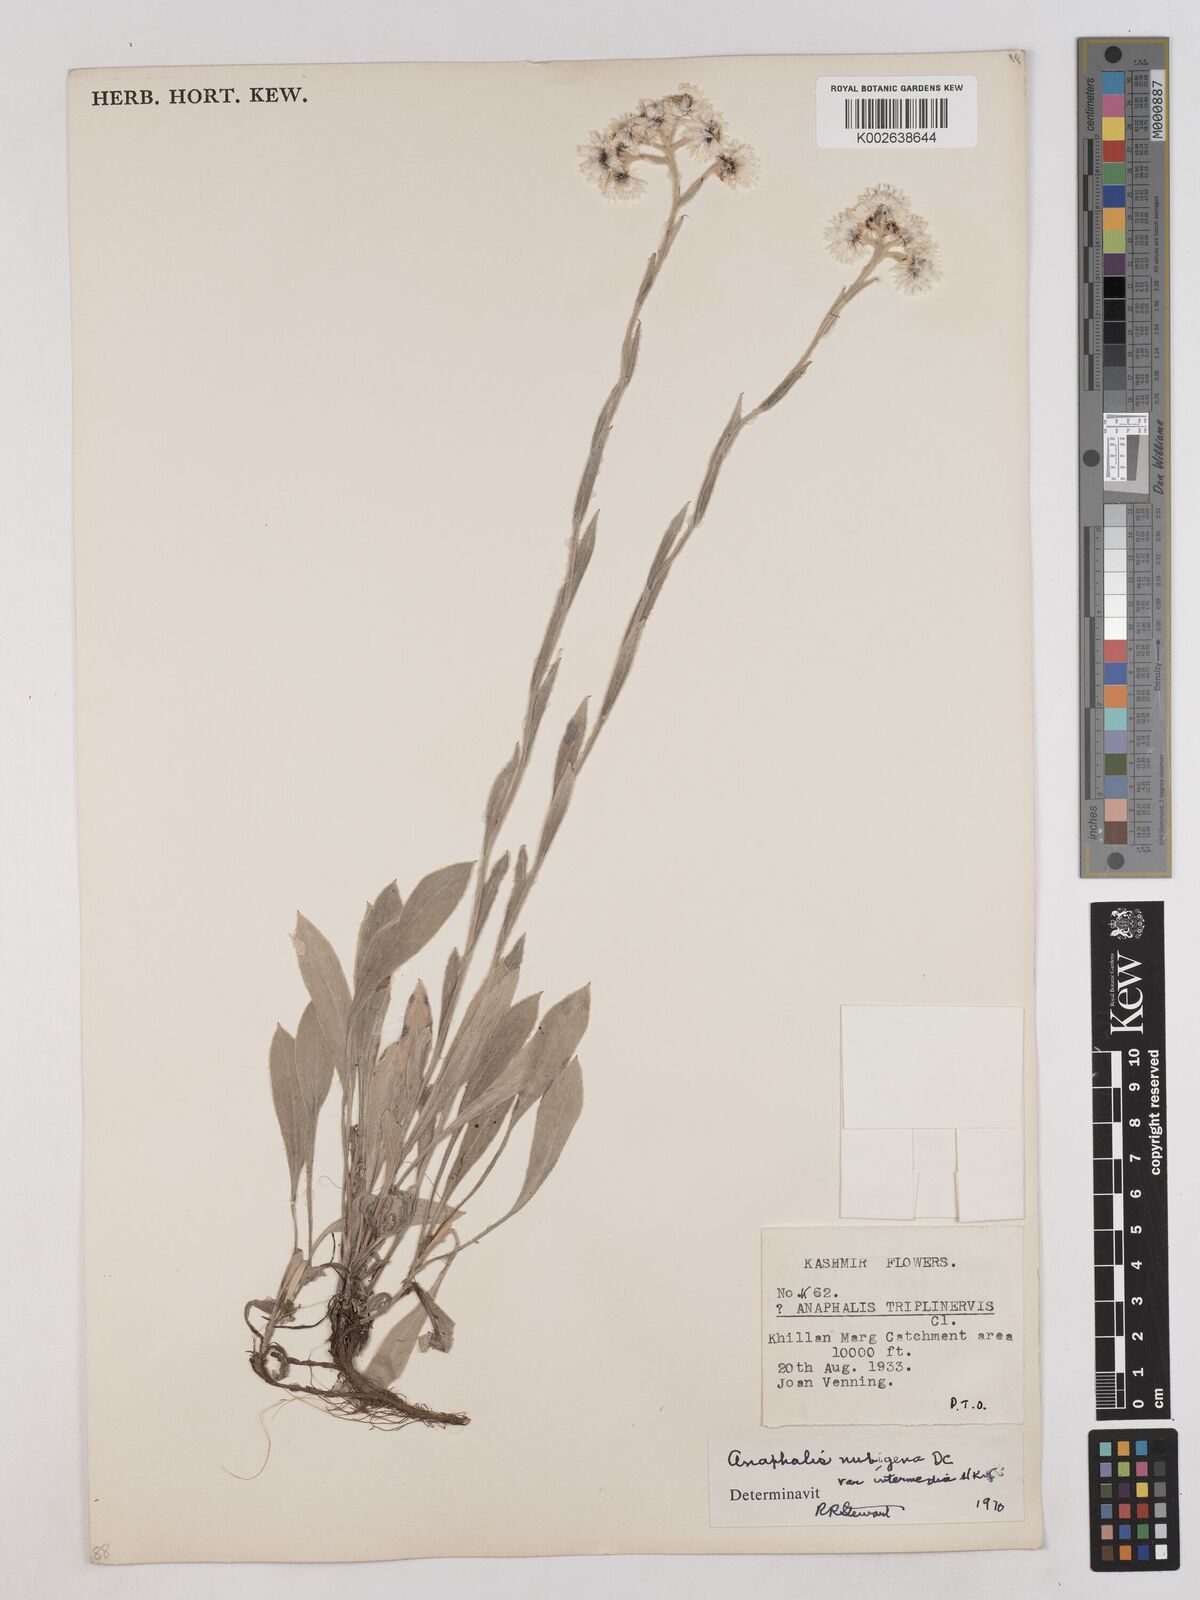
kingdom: Plantae
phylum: Tracheophyta
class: Magnoliopsida
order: Asterales
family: Asteraceae
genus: Anaphalis
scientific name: Anaphalis nepalensis
